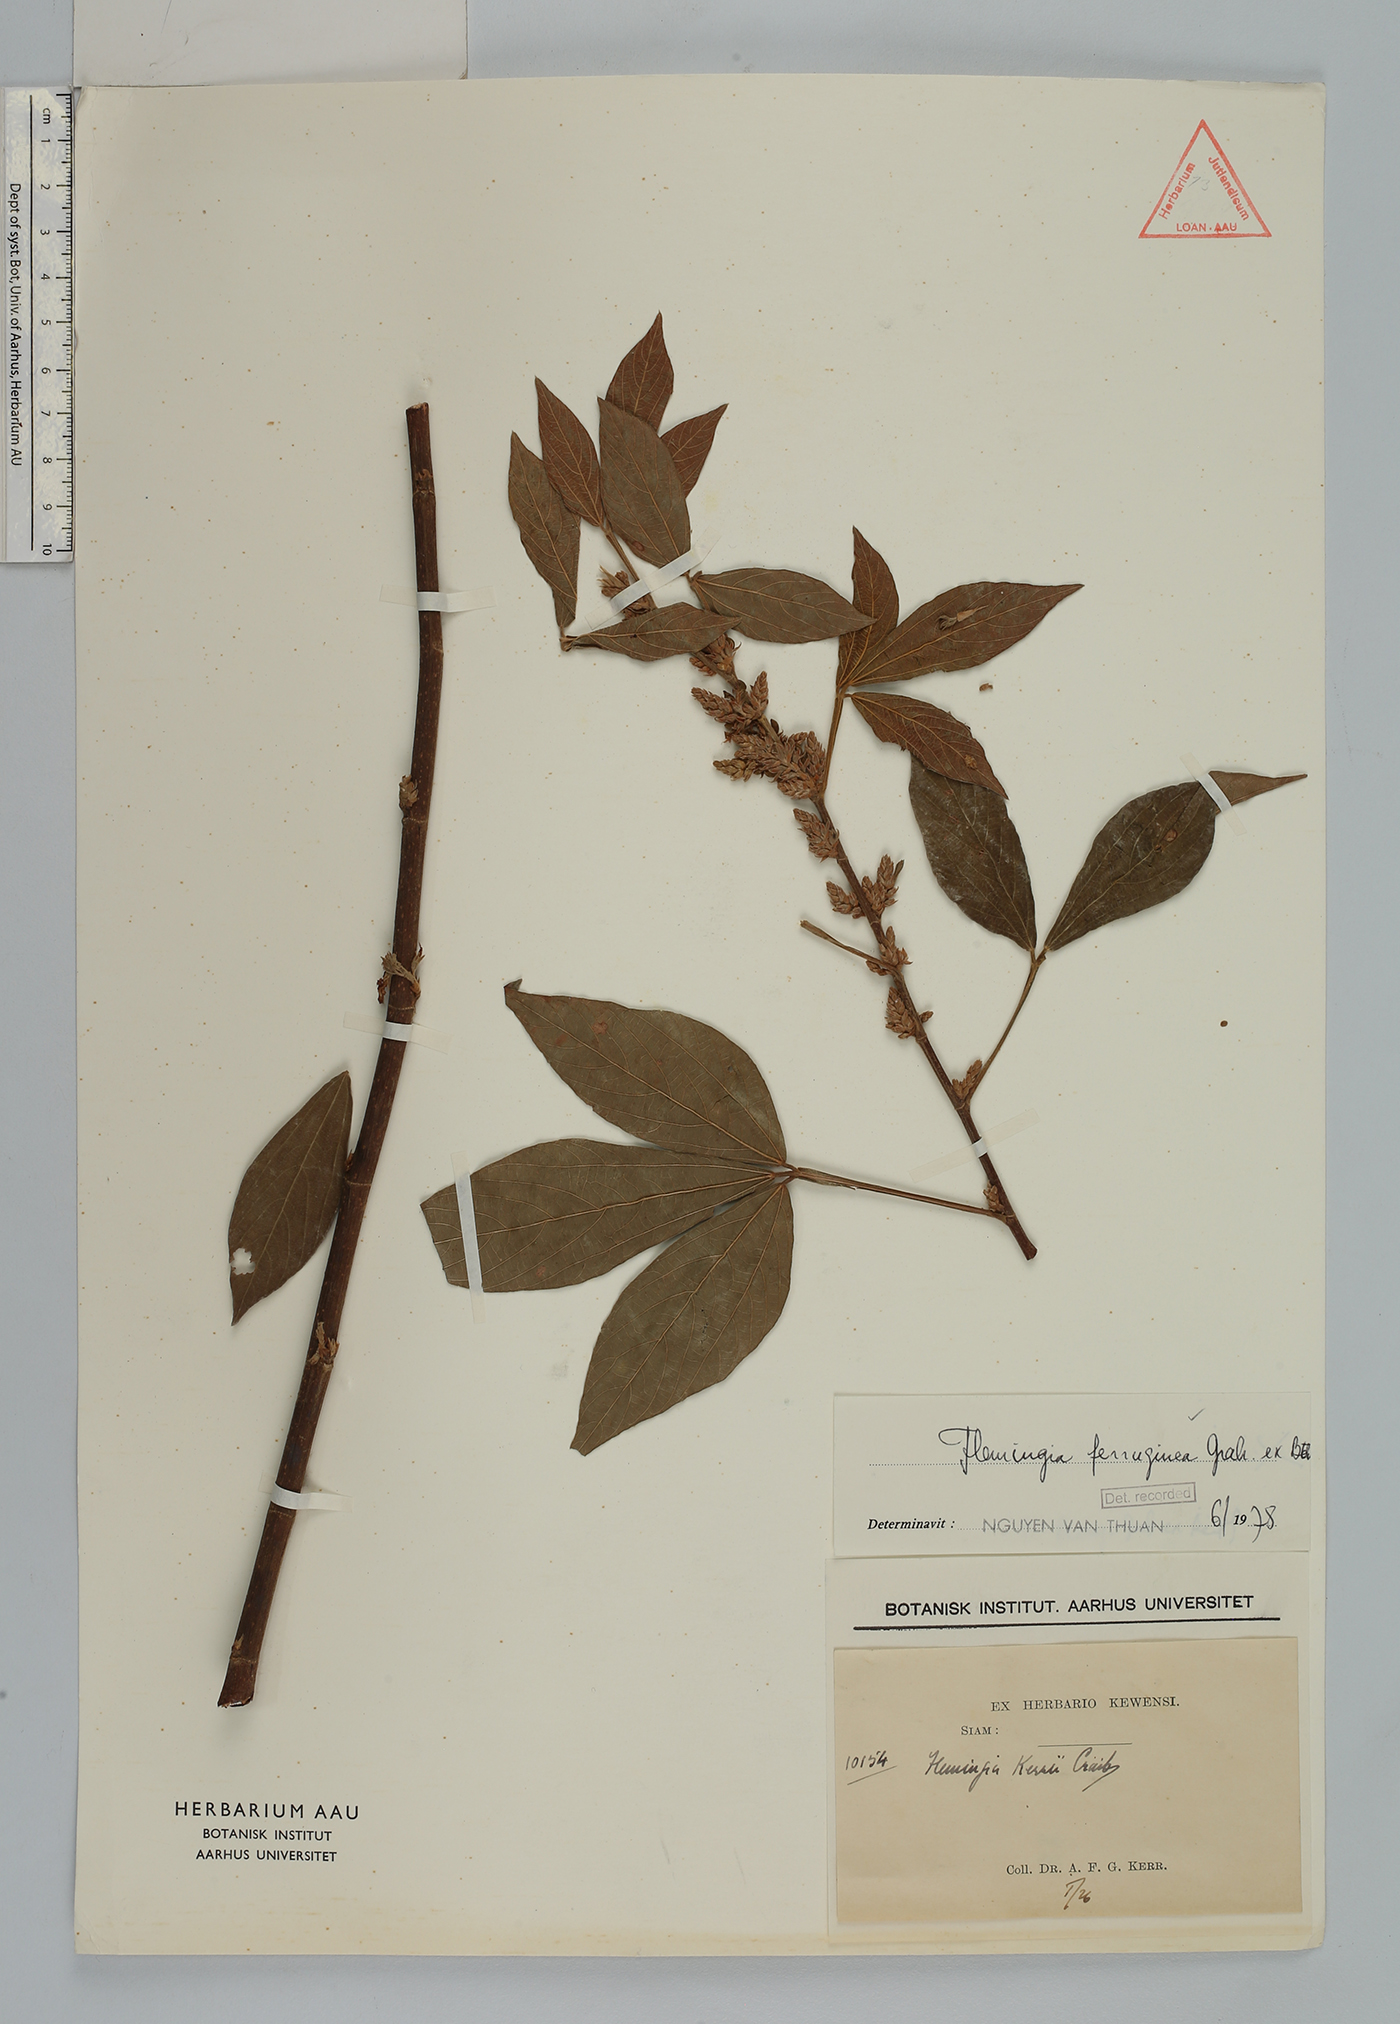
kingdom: Plantae
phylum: Tracheophyta
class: Magnoliopsida
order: Fabales
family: Fabaceae
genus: Flemingia
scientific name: Flemingia wightiana
